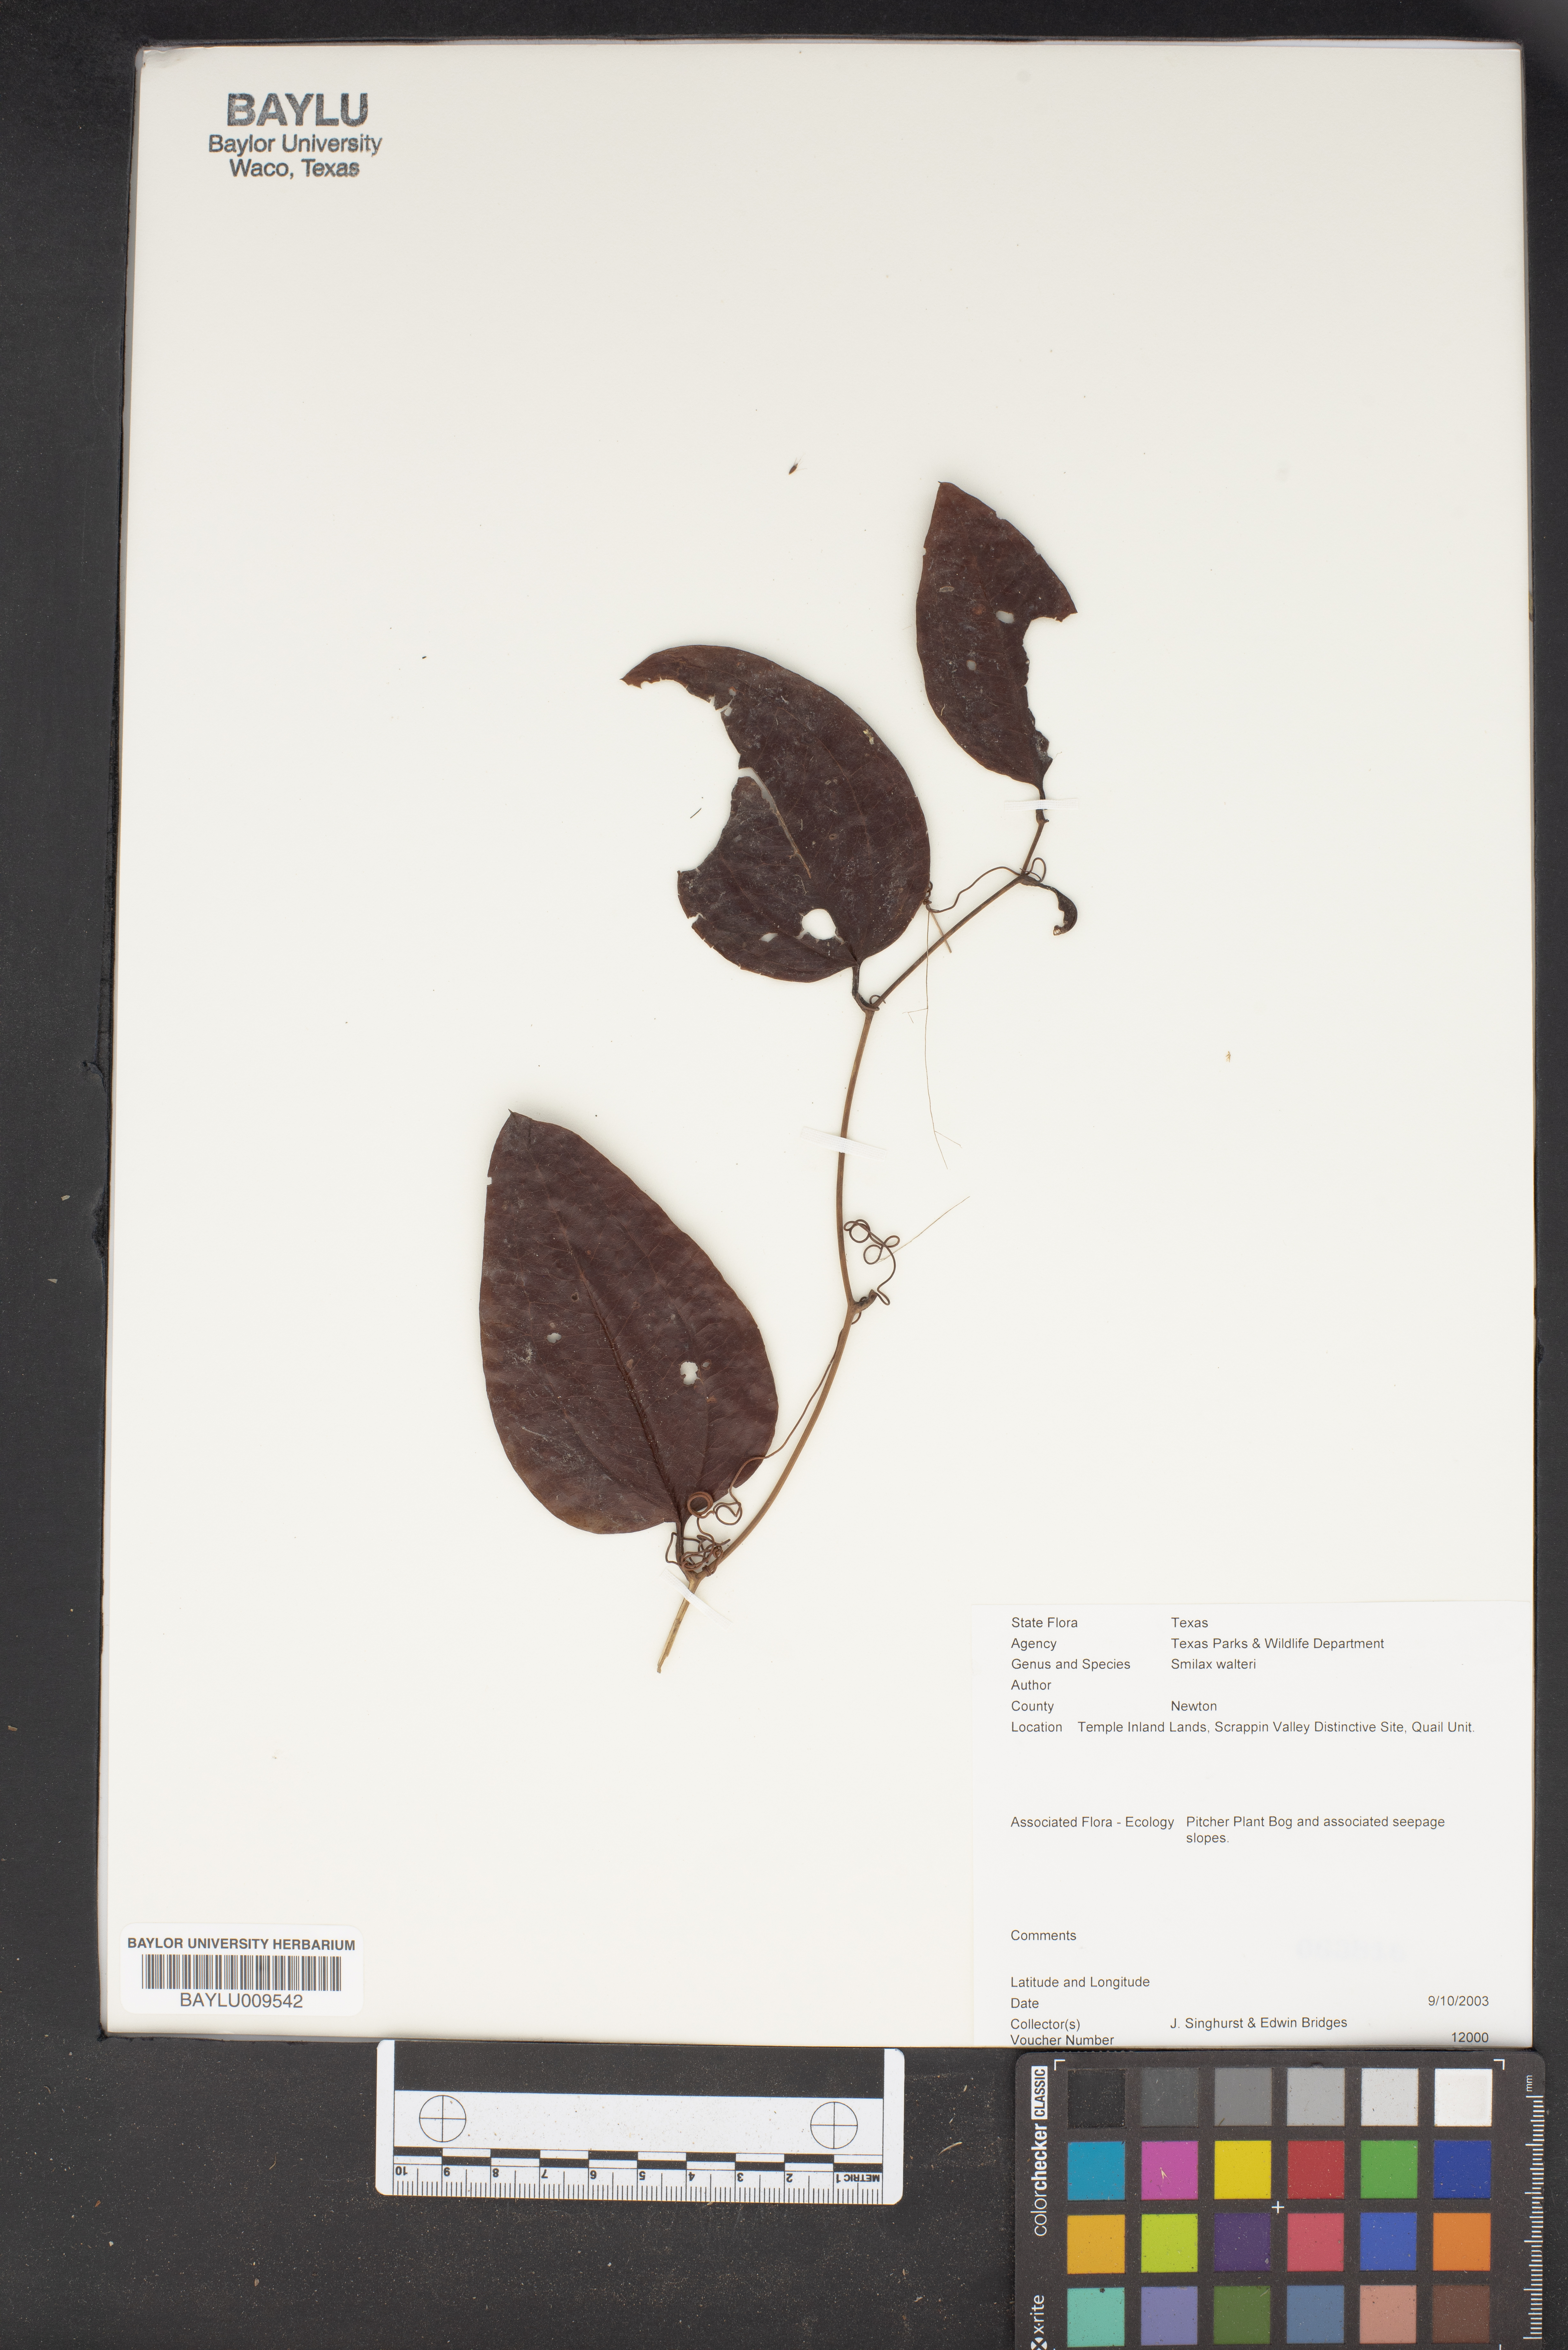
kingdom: Plantae
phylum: Tracheophyta
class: Liliopsida
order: Liliales
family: Smilacaceae
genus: Smilax
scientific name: Smilax walteri
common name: Coral greenbrier
